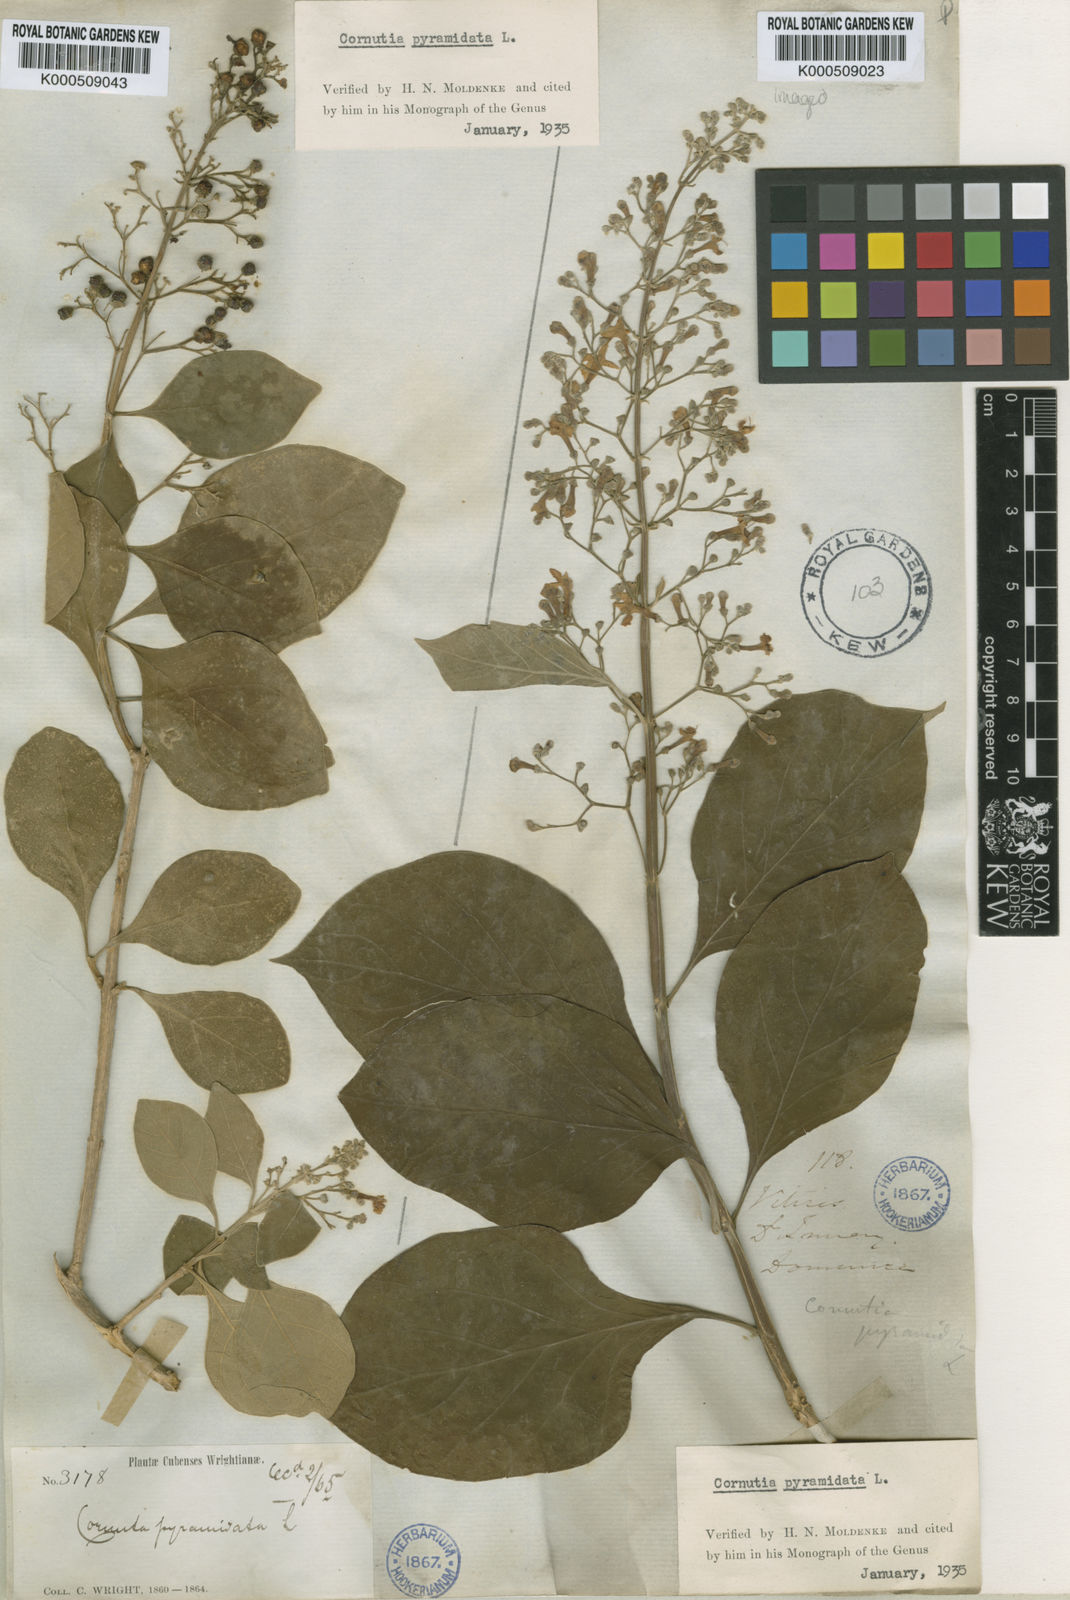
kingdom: Plantae
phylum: Tracheophyta
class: Magnoliopsida
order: Lamiales
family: Lamiaceae
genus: Cornutia
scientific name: Cornutia pyramidata
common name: Azulejo
